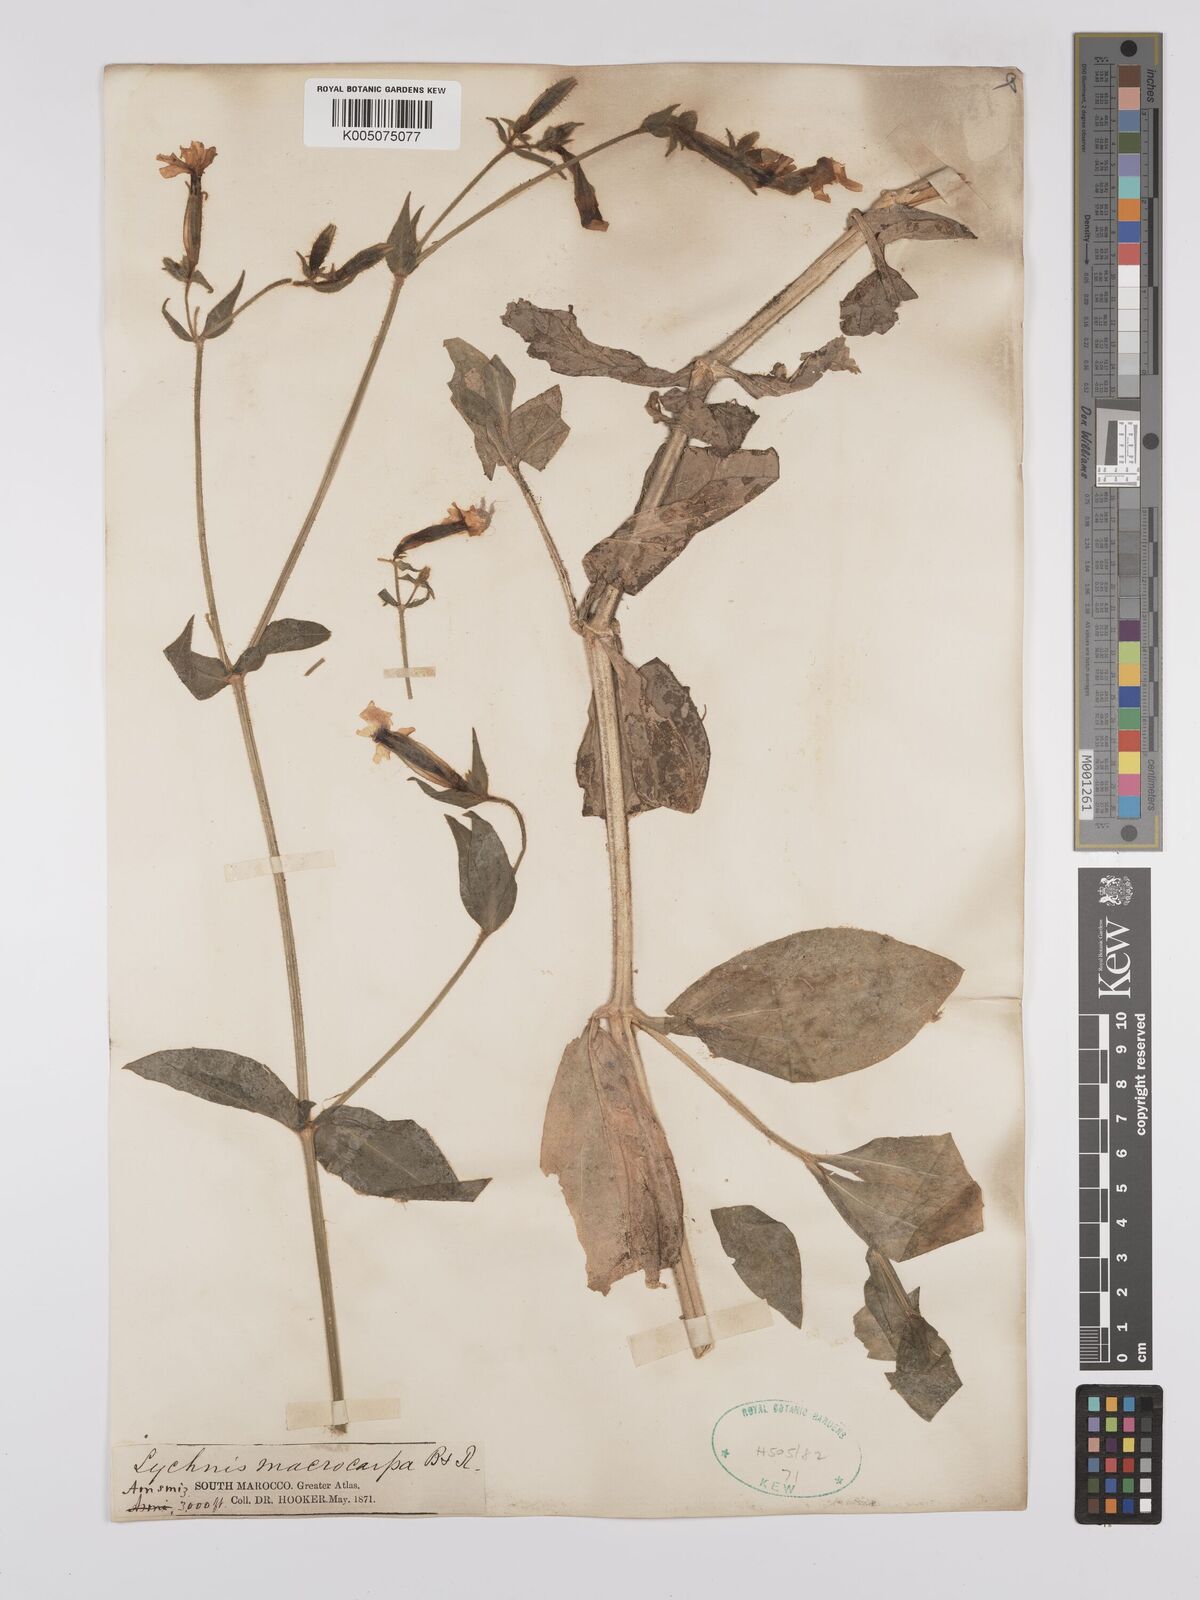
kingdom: Plantae
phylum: Tracheophyta
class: Magnoliopsida
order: Caryophyllales
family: Caryophyllaceae
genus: Silene
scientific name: Silene
